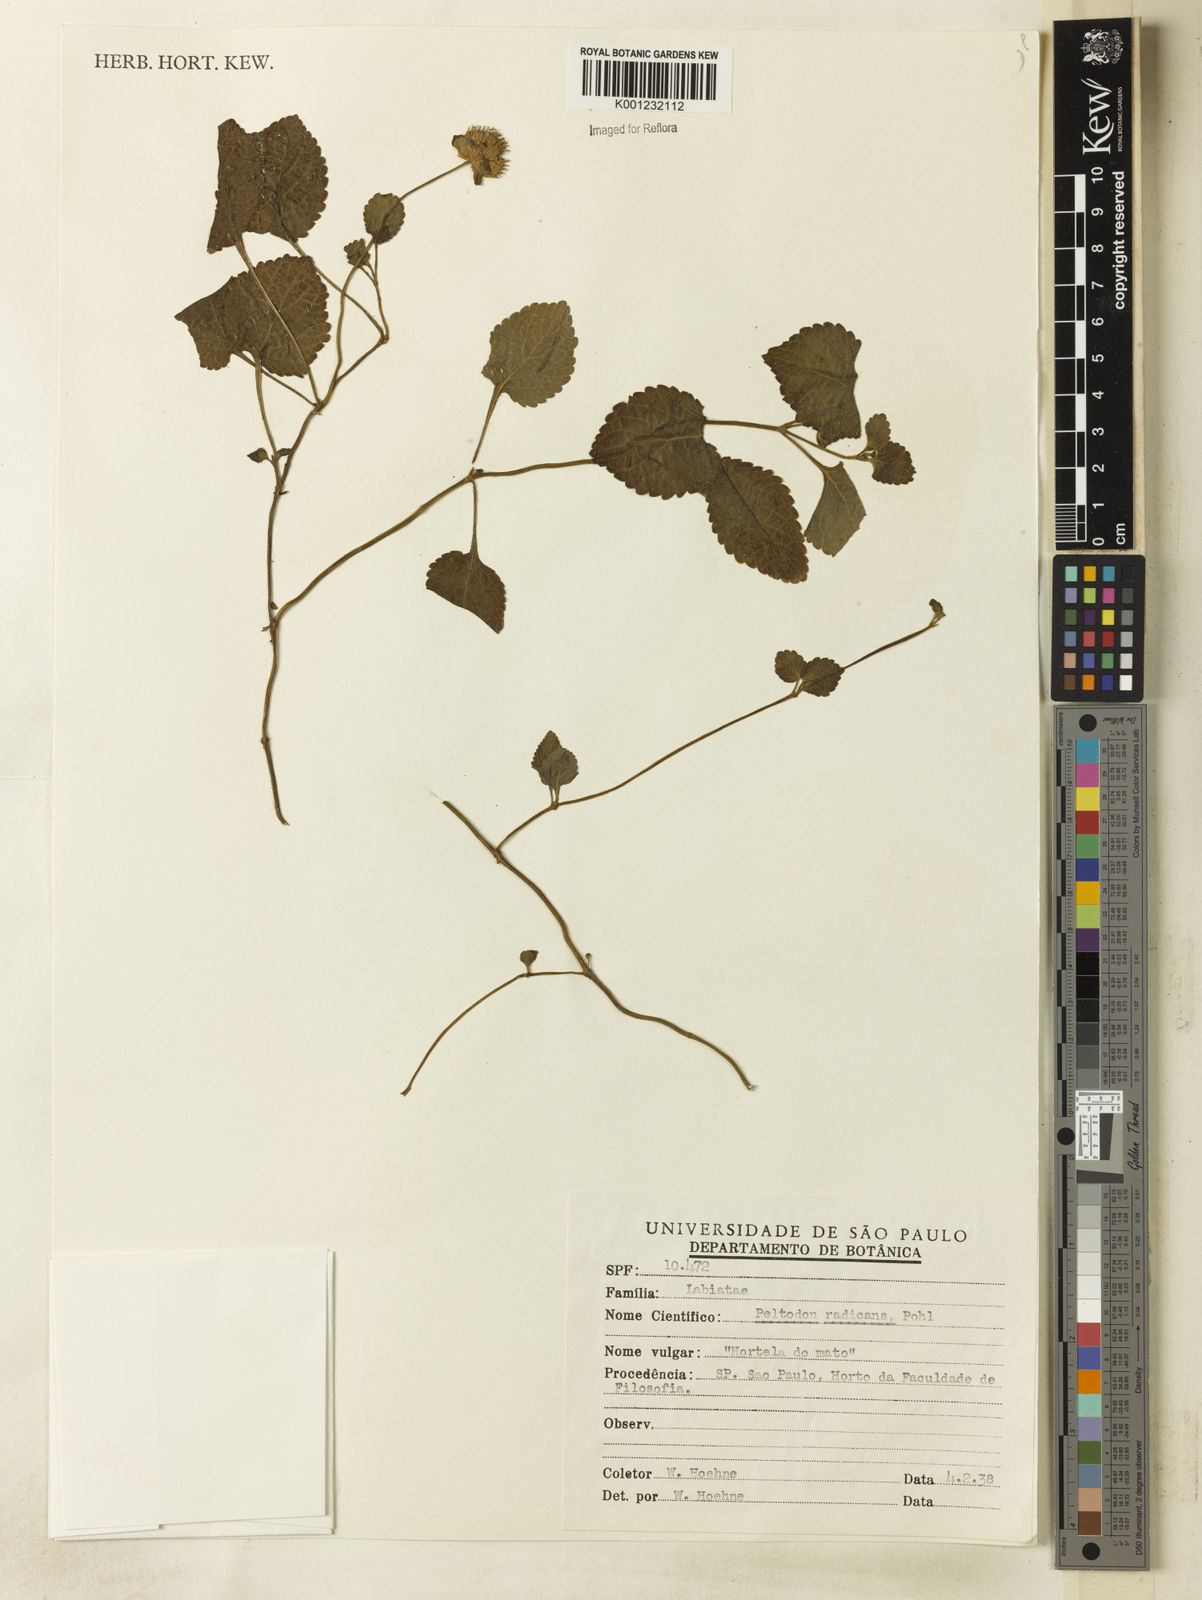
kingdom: Plantae
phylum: Tracheophyta
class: Magnoliopsida
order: Lamiales
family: Lamiaceae
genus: Hyptis
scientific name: Hyptis radicans
